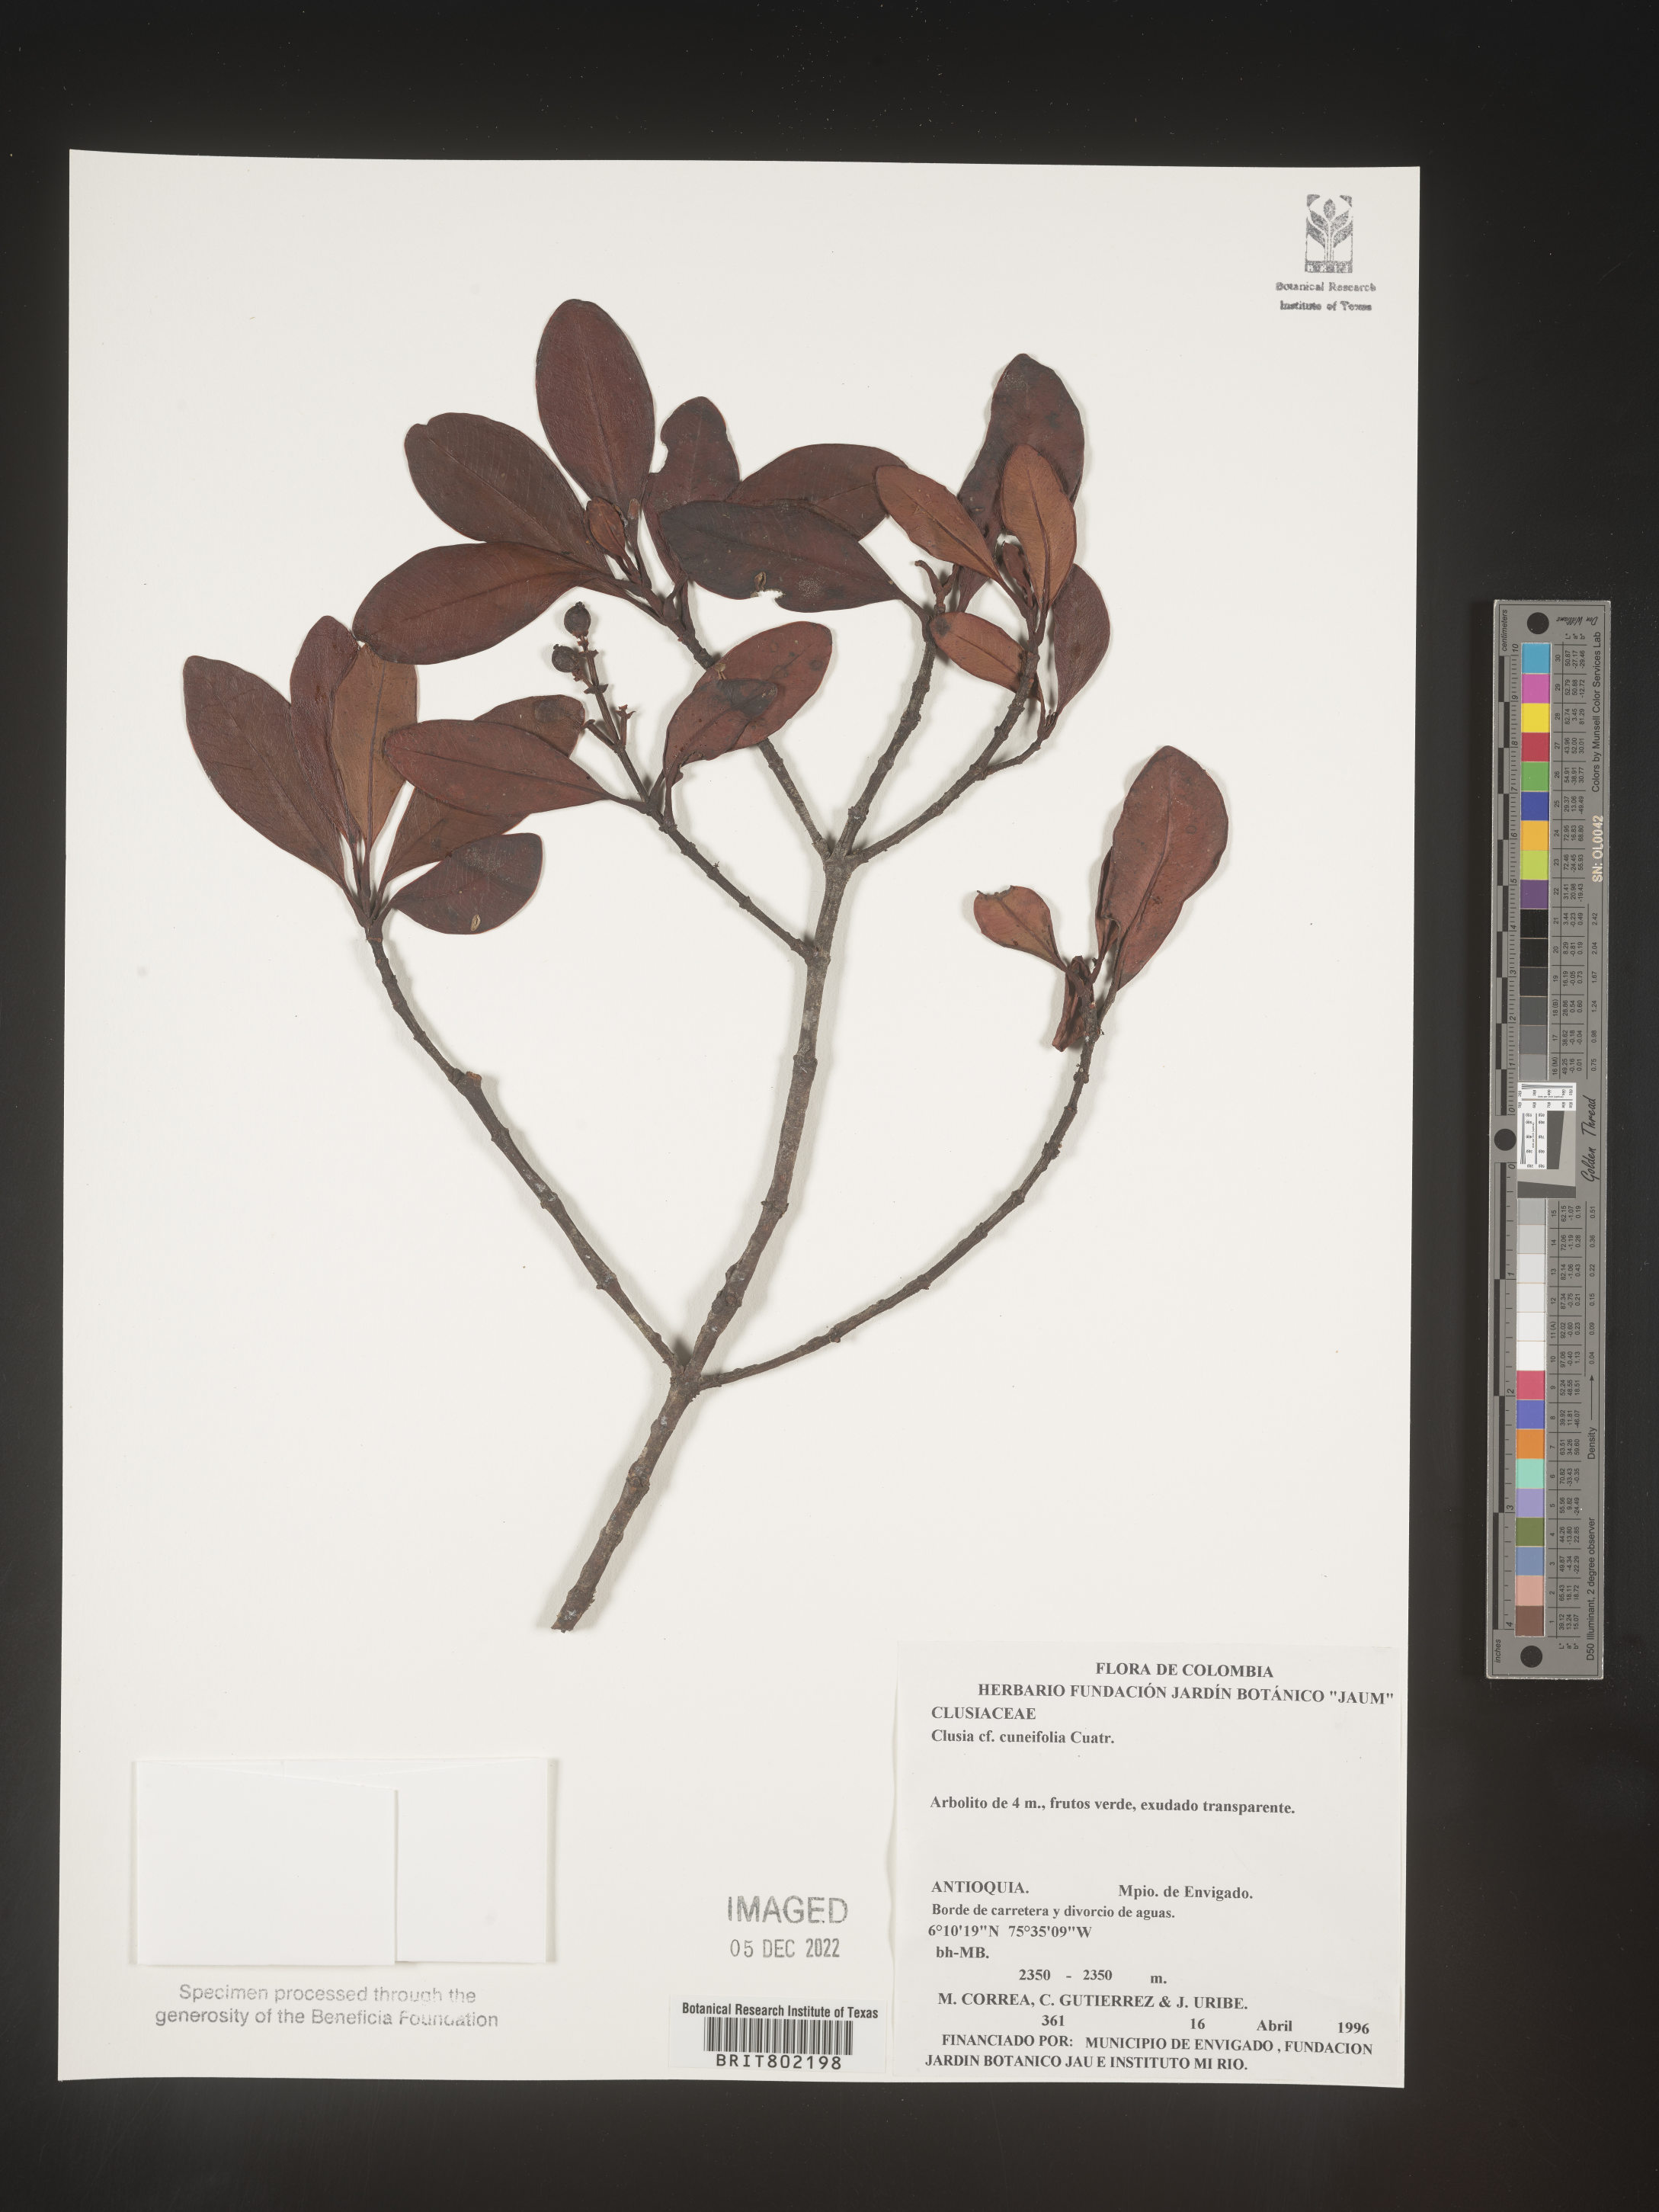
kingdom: Plantae
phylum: Tracheophyta
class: Magnoliopsida
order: Malpighiales
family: Clusiaceae
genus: Clusia
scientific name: Clusia
